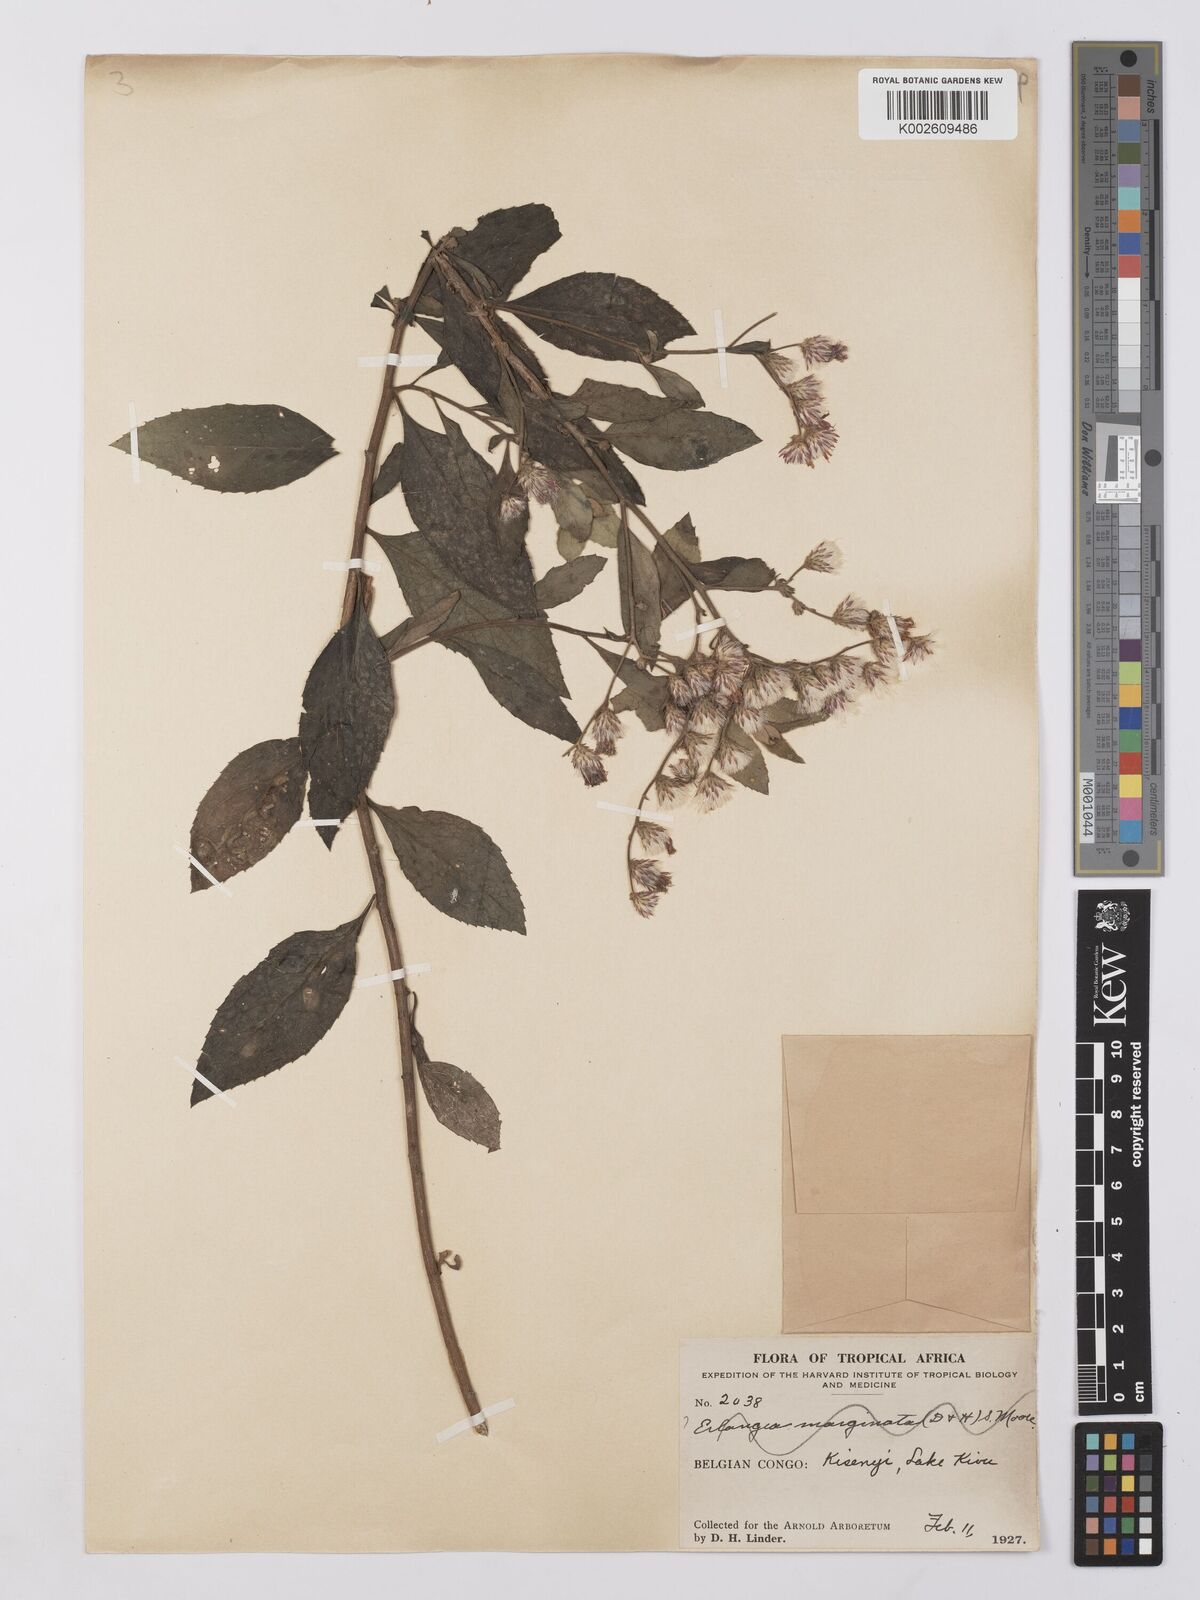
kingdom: Plantae
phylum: Tracheophyta
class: Magnoliopsida
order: Asterales
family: Asteraceae
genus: Vernonia
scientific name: Vernonia
